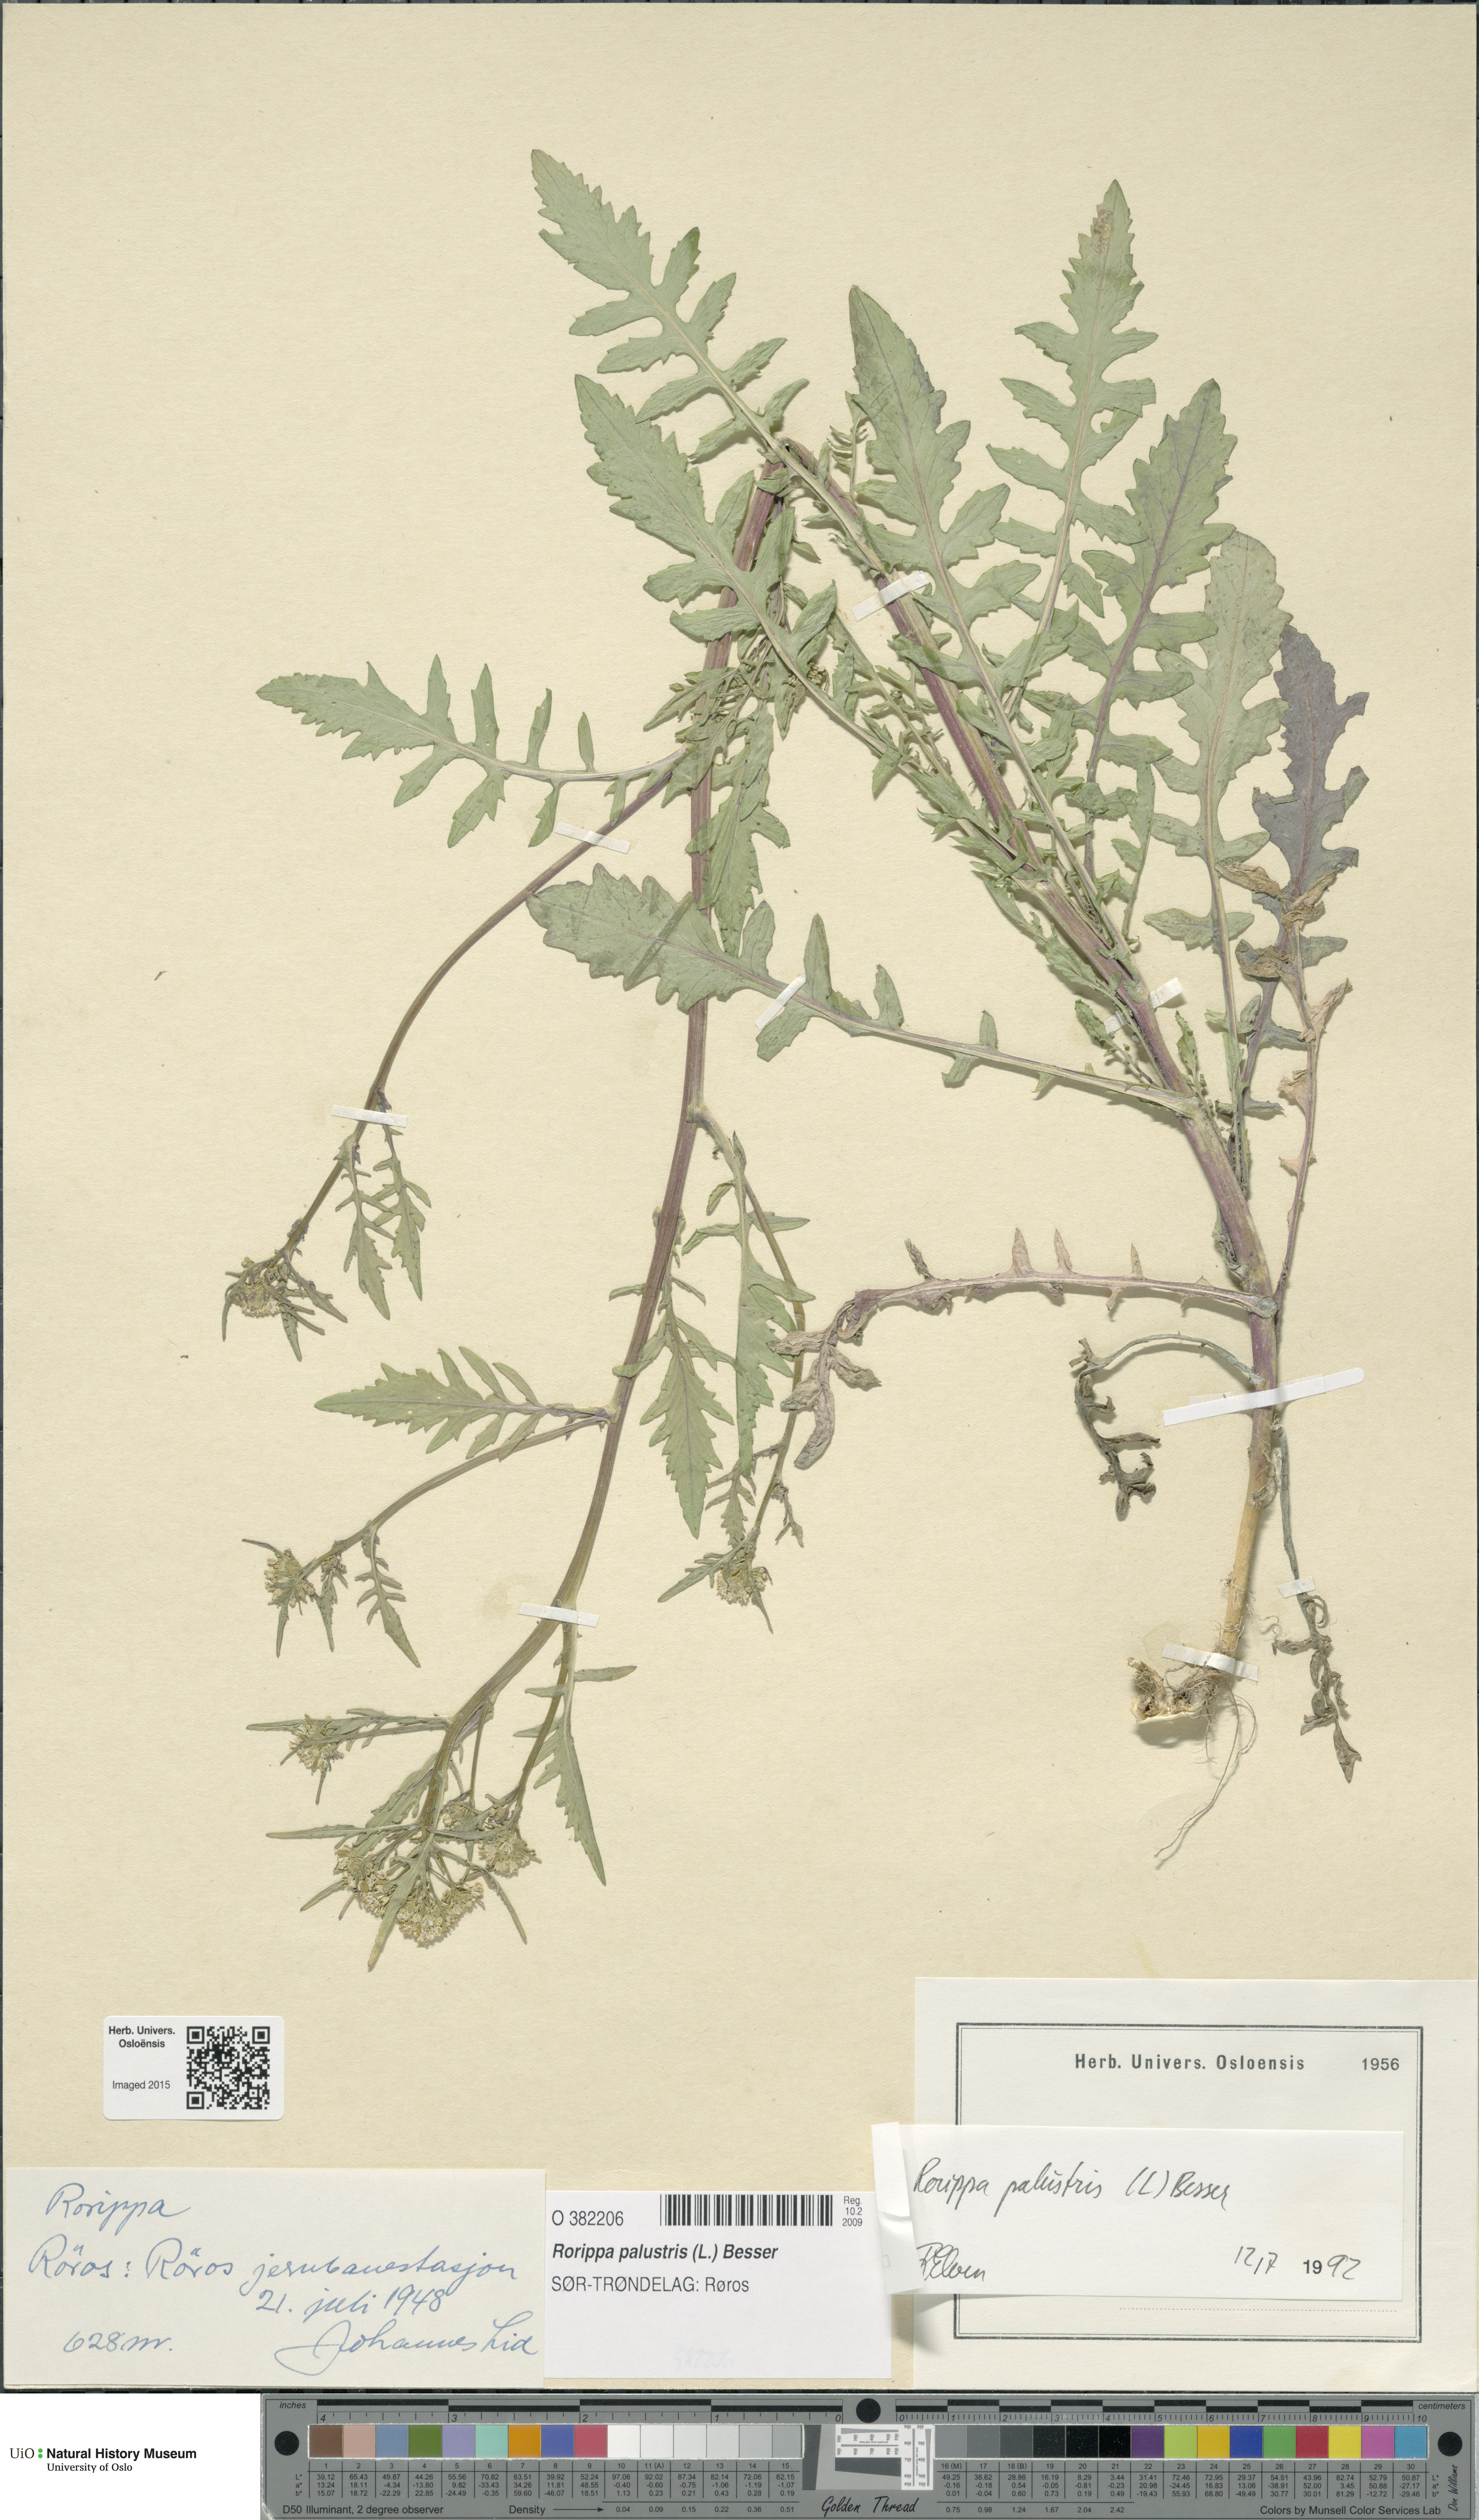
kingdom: Plantae
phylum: Tracheophyta
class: Magnoliopsida
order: Brassicales
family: Brassicaceae
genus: Rorippa
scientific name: Rorippa palustris
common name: Marsh yellow-cress
